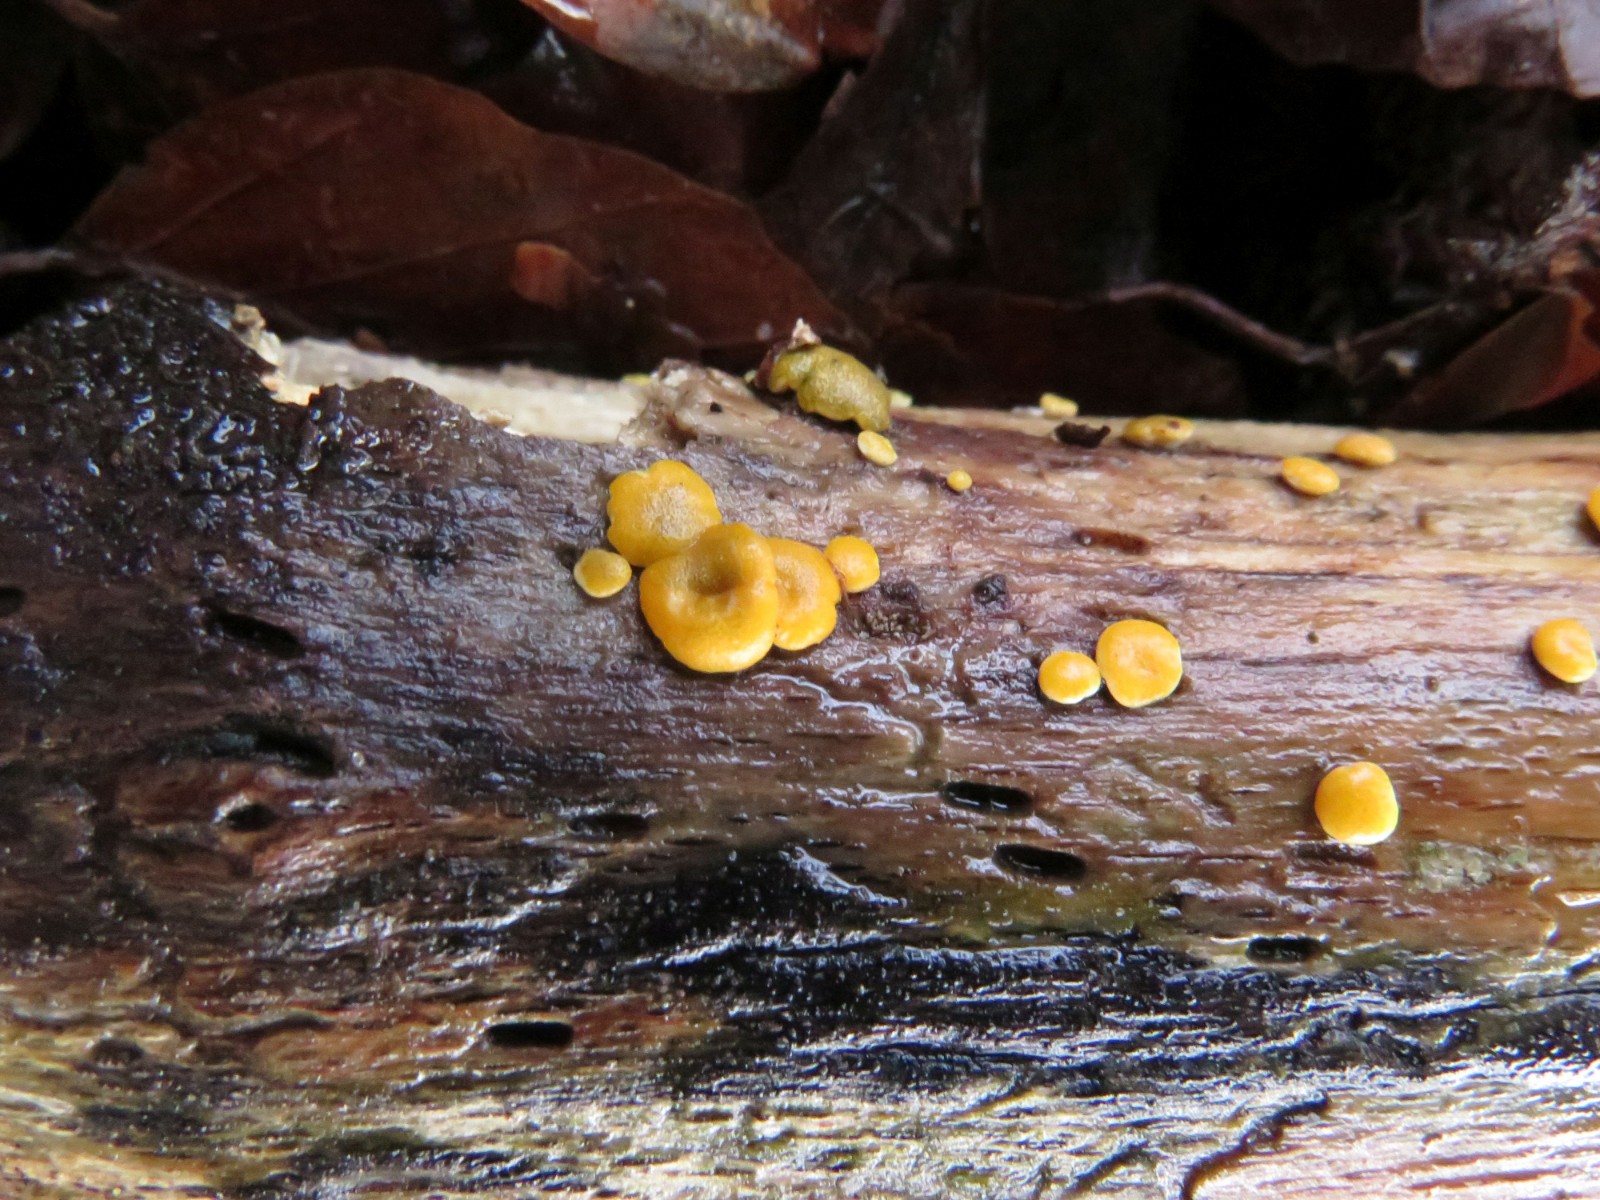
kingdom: Fungi
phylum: Ascomycota
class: Sordariomycetes
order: Hypocreales
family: Hypocreaceae
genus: Trichoderma
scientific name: Trichoderma aureoviride
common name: æggegul kødkerne
